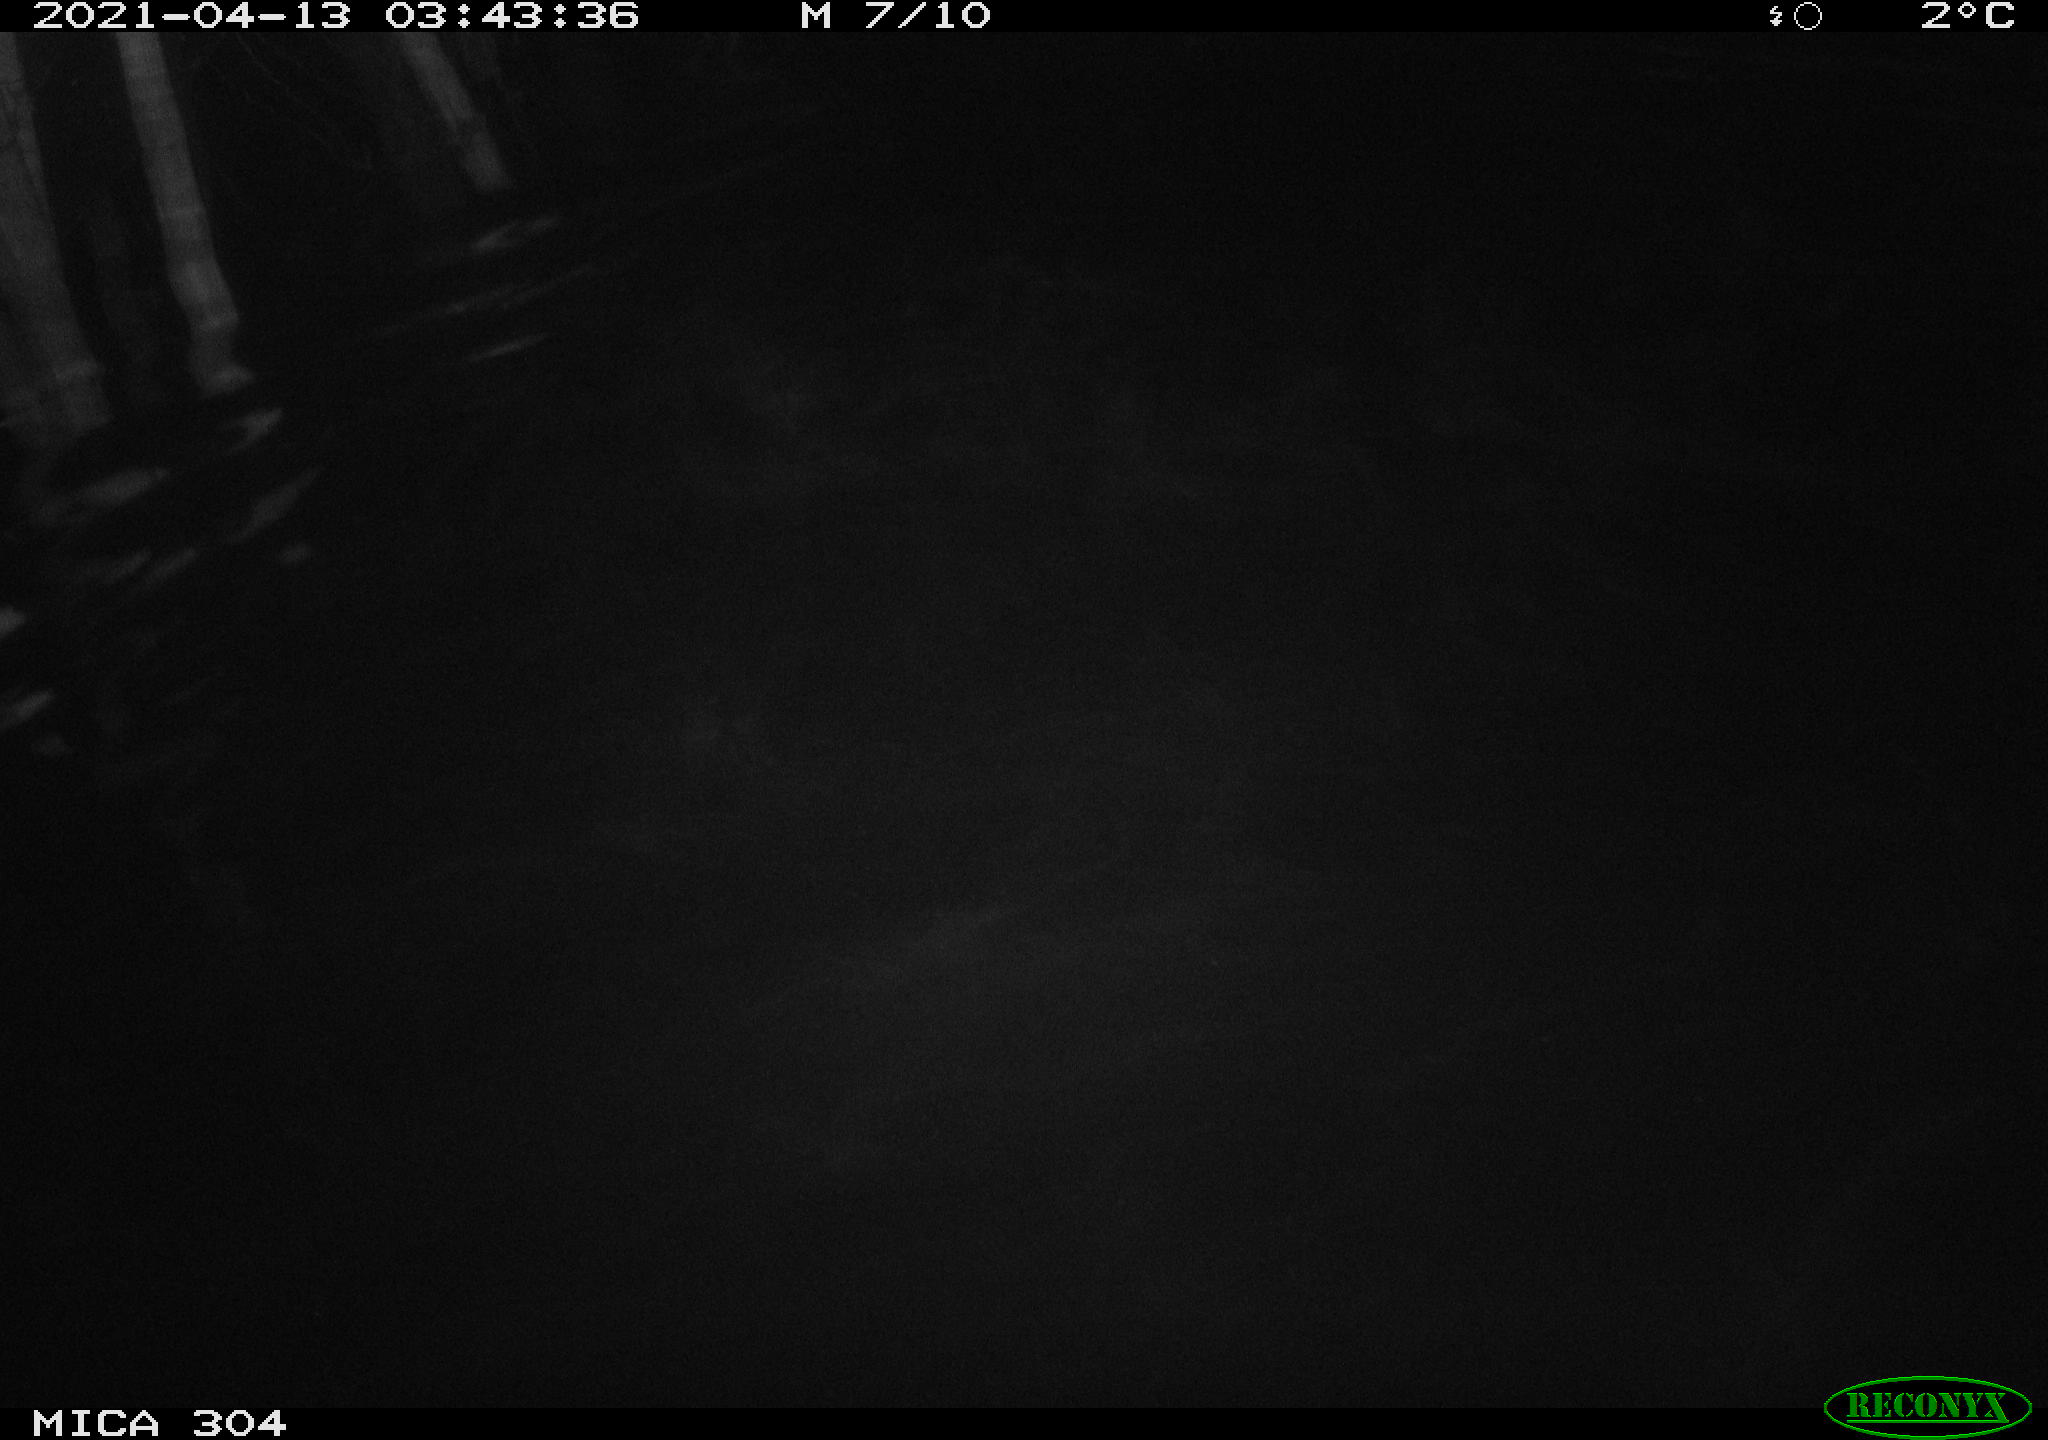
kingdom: Animalia
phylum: Chordata
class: Aves
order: Anseriformes
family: Anatidae
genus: Anas
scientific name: Anas
